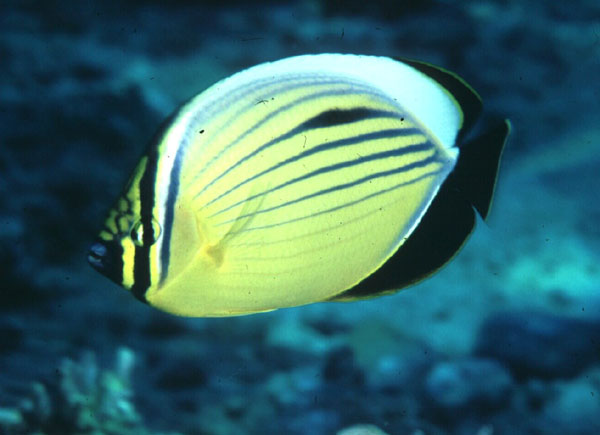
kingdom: Animalia
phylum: Chordata
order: Perciformes
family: Chaetodontidae
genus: Chaetodon
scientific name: Chaetodon austriacus
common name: Exquisite butterflyfish
